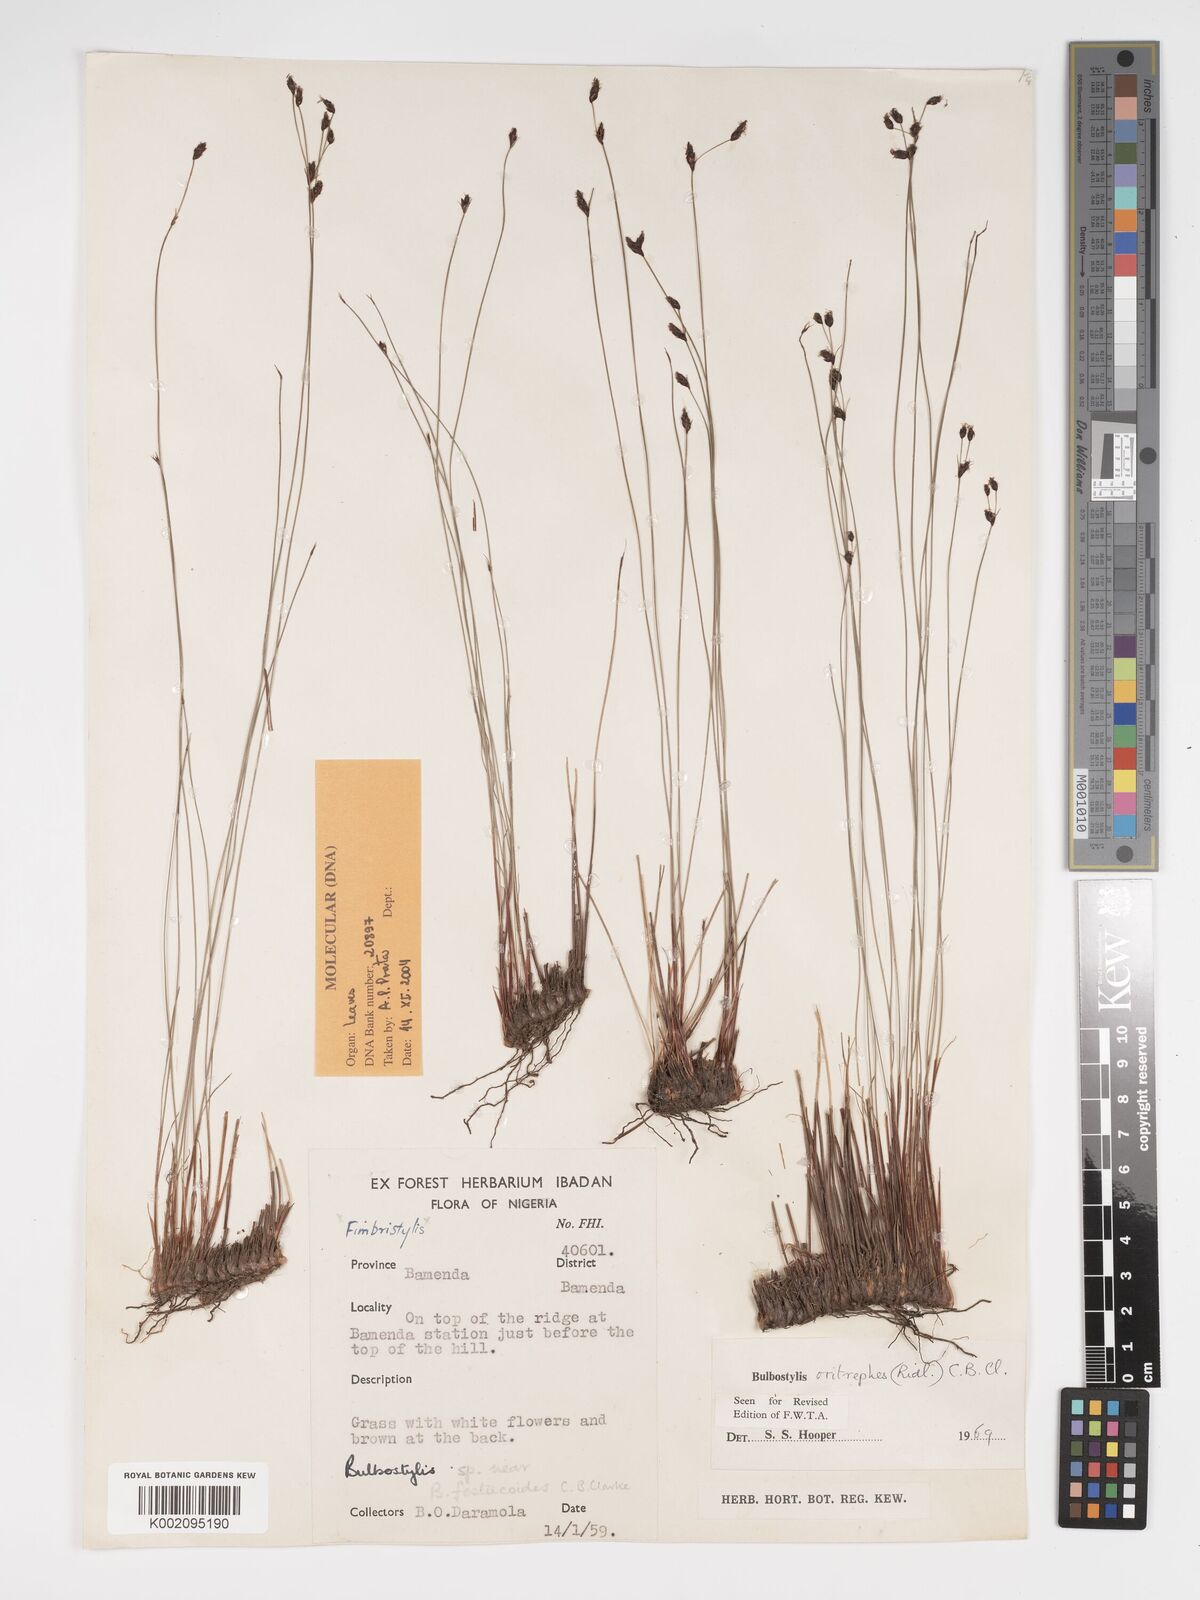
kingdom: Plantae
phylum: Tracheophyta
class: Liliopsida
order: Poales
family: Cyperaceae
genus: Bulbostylis
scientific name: Bulbostylis oritrephes
